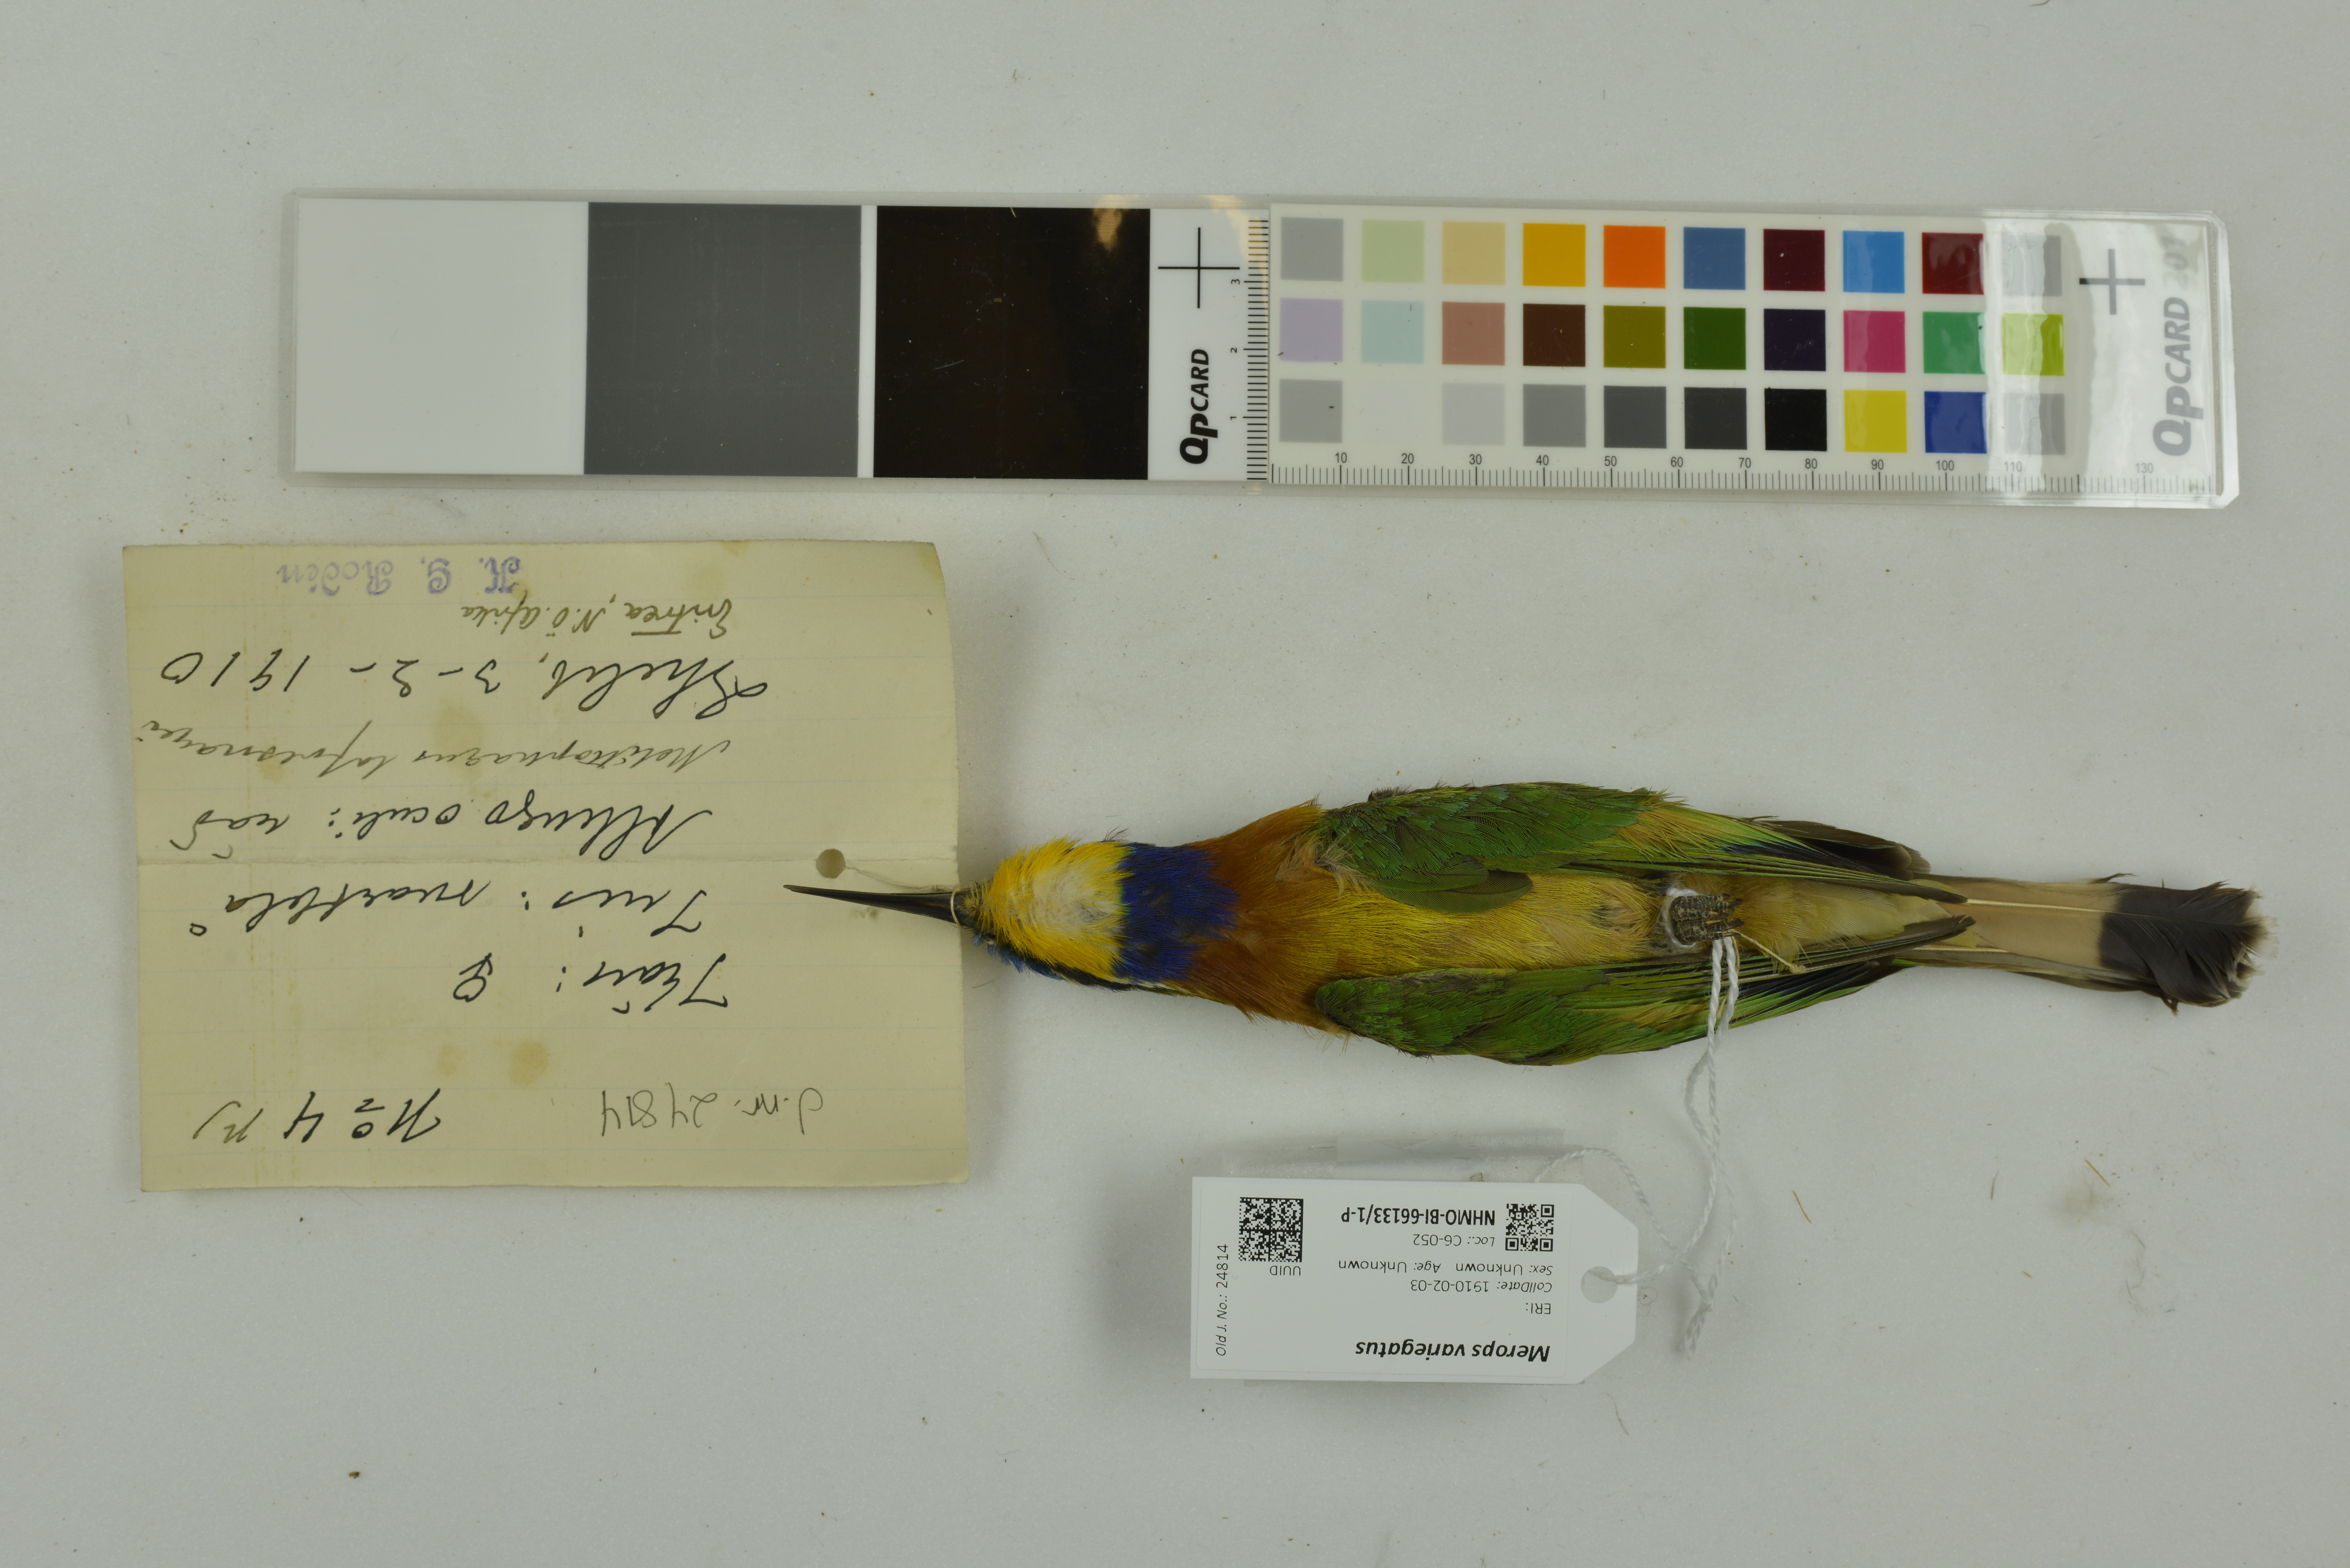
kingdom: Animalia
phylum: Chordata
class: Aves
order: Coraciiformes
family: Meropidae
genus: Merops
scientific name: Merops variegatus
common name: Blue-breasted bee-eater
